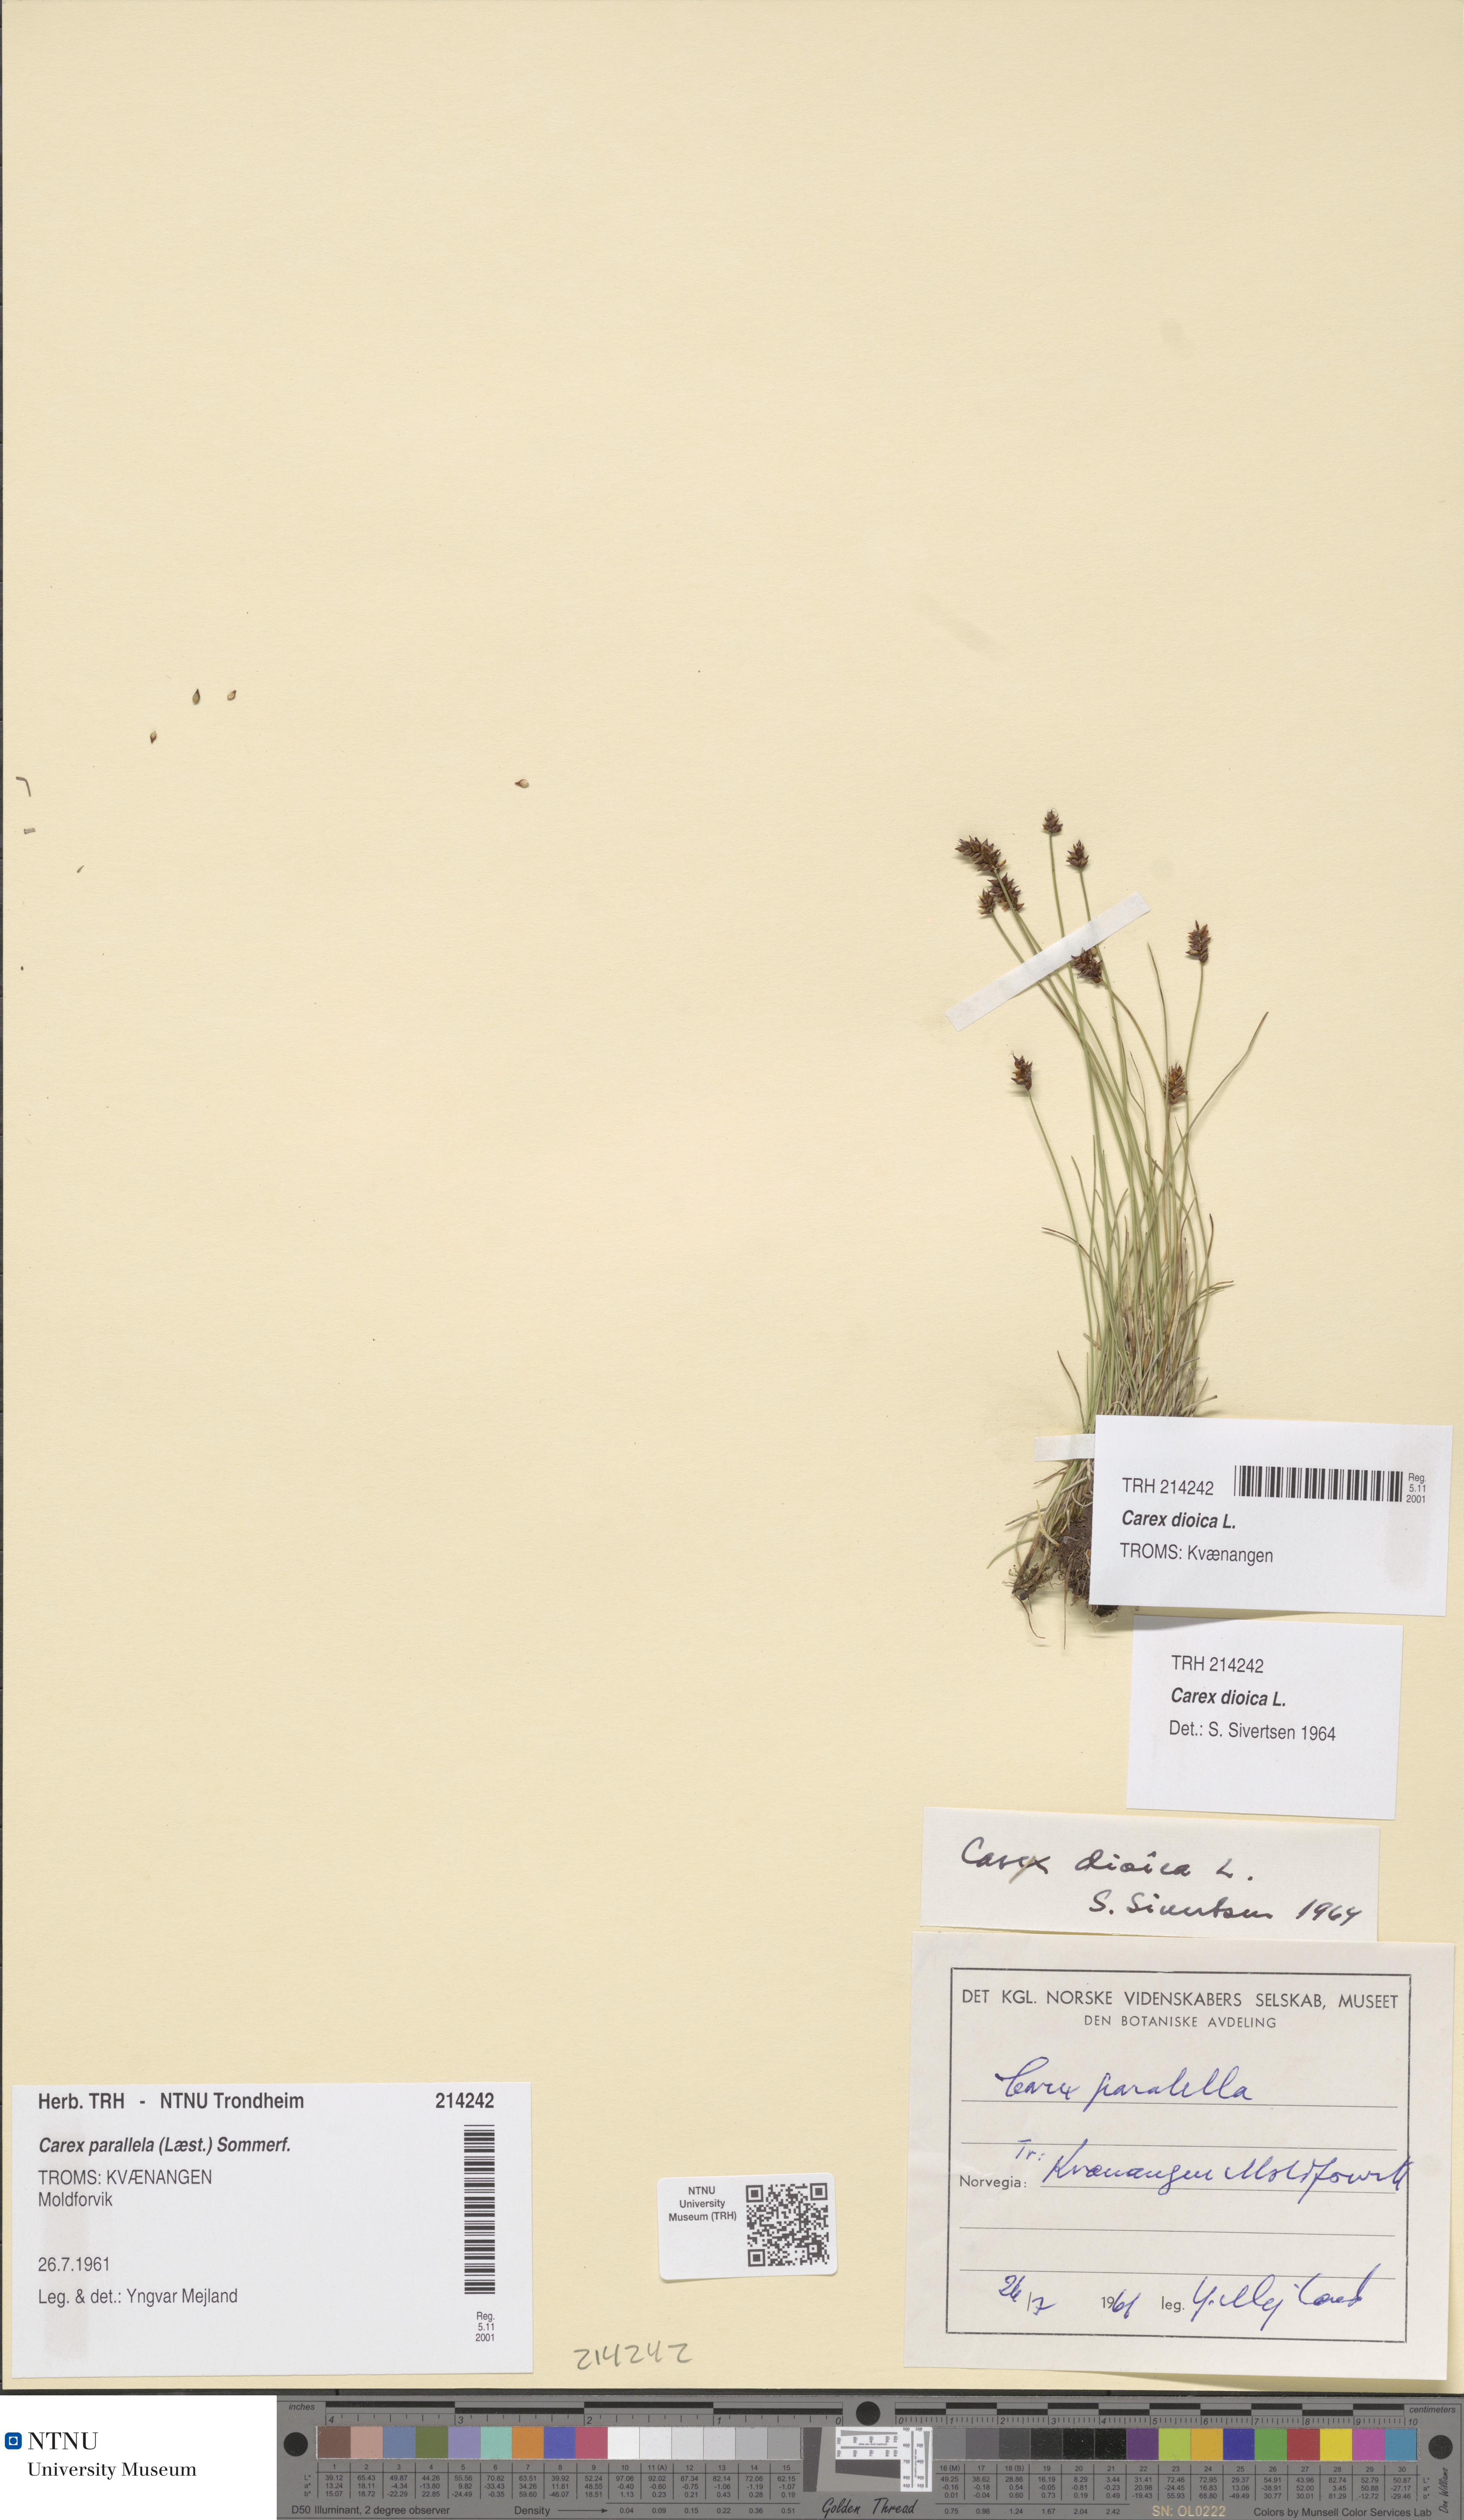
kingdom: Plantae
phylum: Tracheophyta
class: Liliopsida
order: Poales
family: Cyperaceae
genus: Carex
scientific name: Carex dioica
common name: Dioecious sedge
